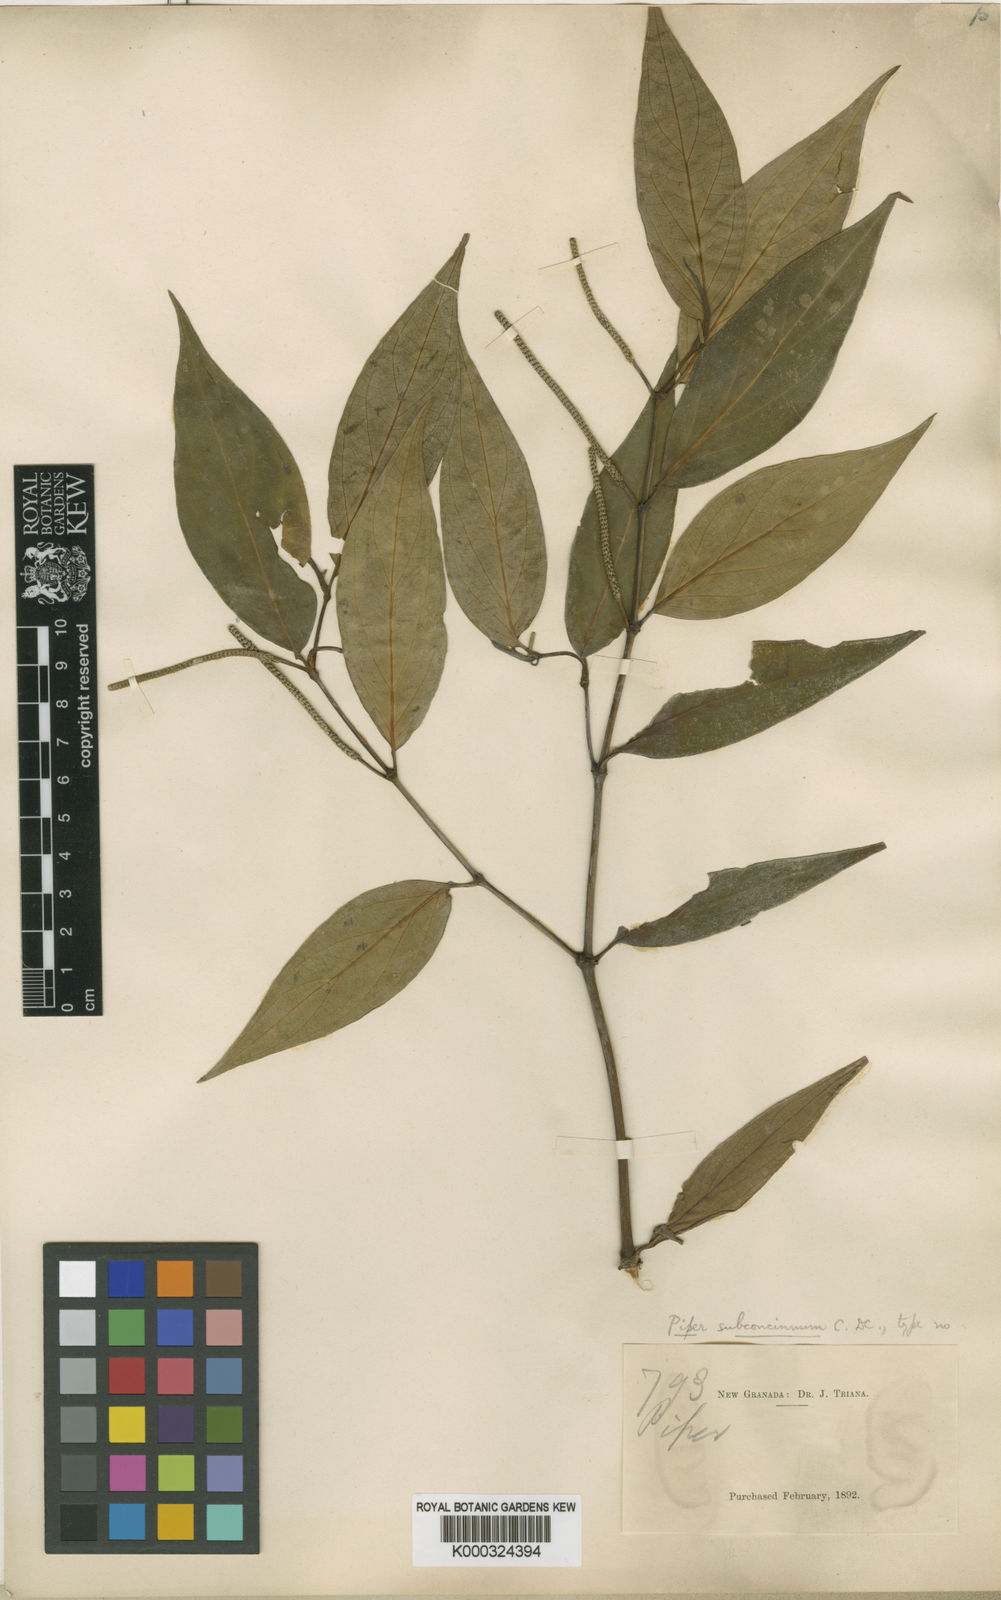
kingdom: Plantae
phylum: Tracheophyta
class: Magnoliopsida
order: Piperales
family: Piperaceae
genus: Piper
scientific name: Piper subconcinnum
